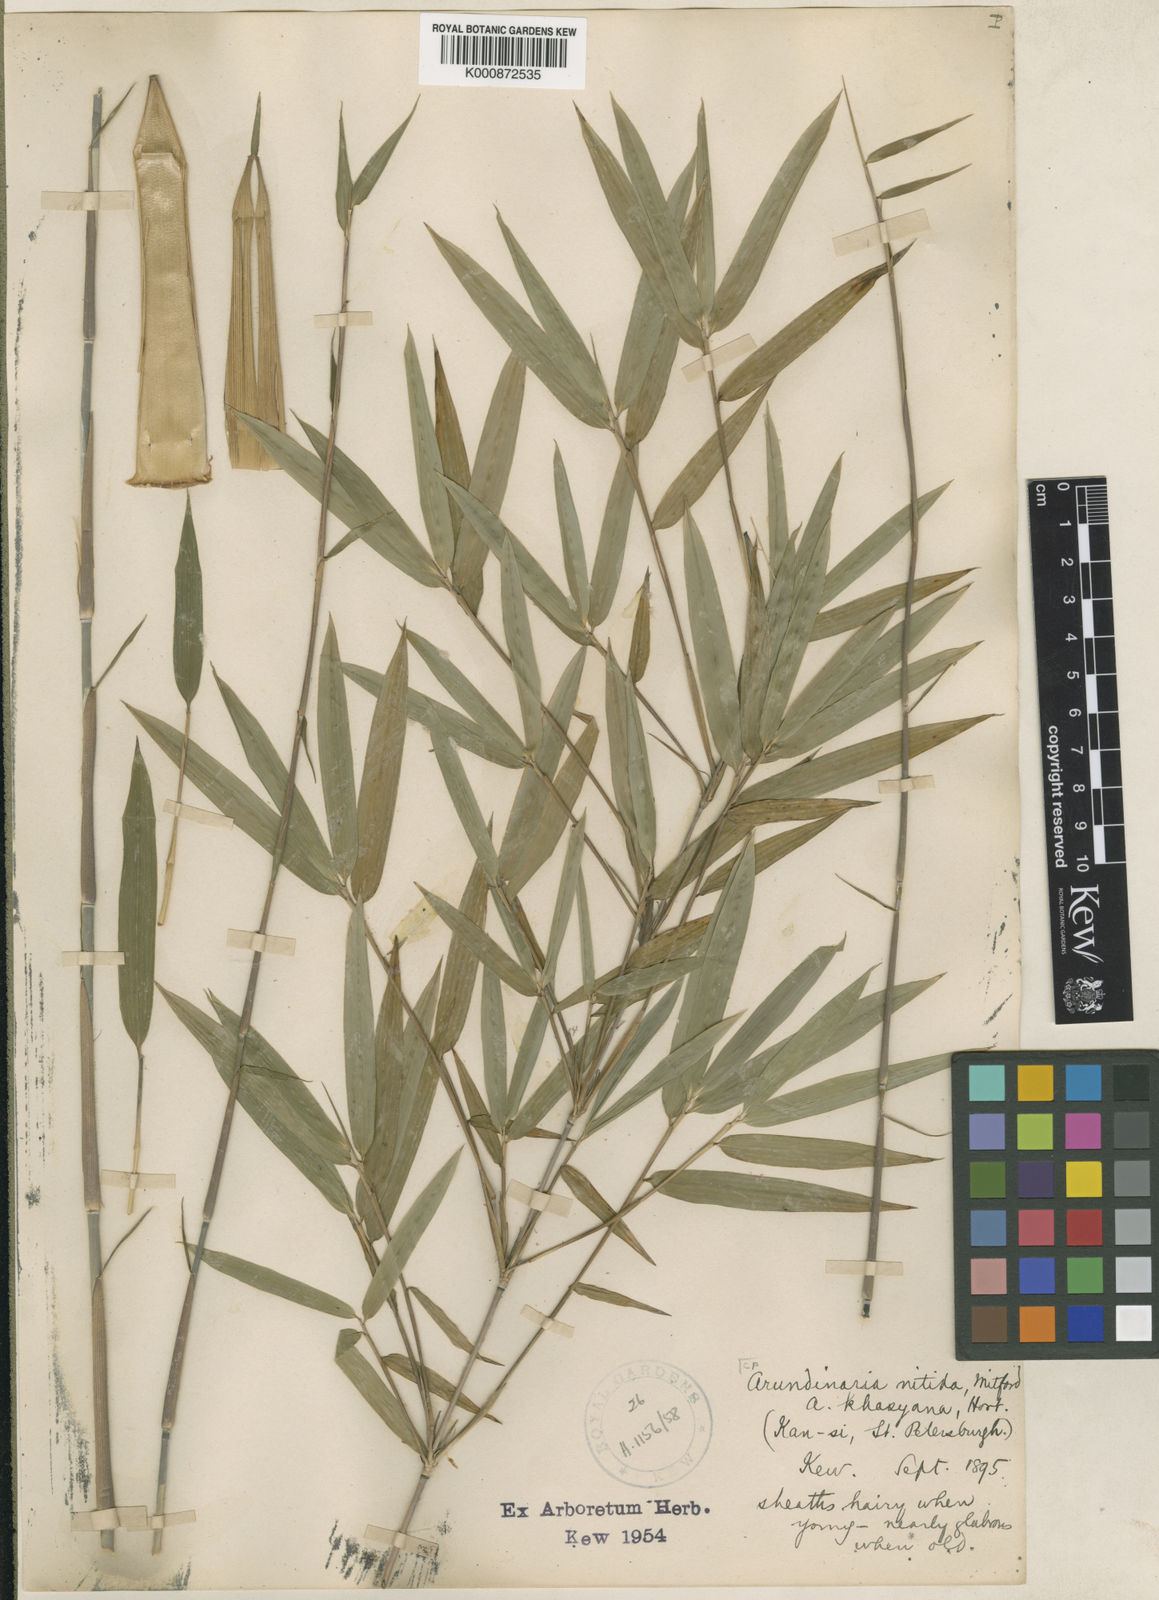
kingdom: Plantae
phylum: Tracheophyta
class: Liliopsida
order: Poales
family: Poaceae
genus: Fargesia
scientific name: Fargesia nitida ex
